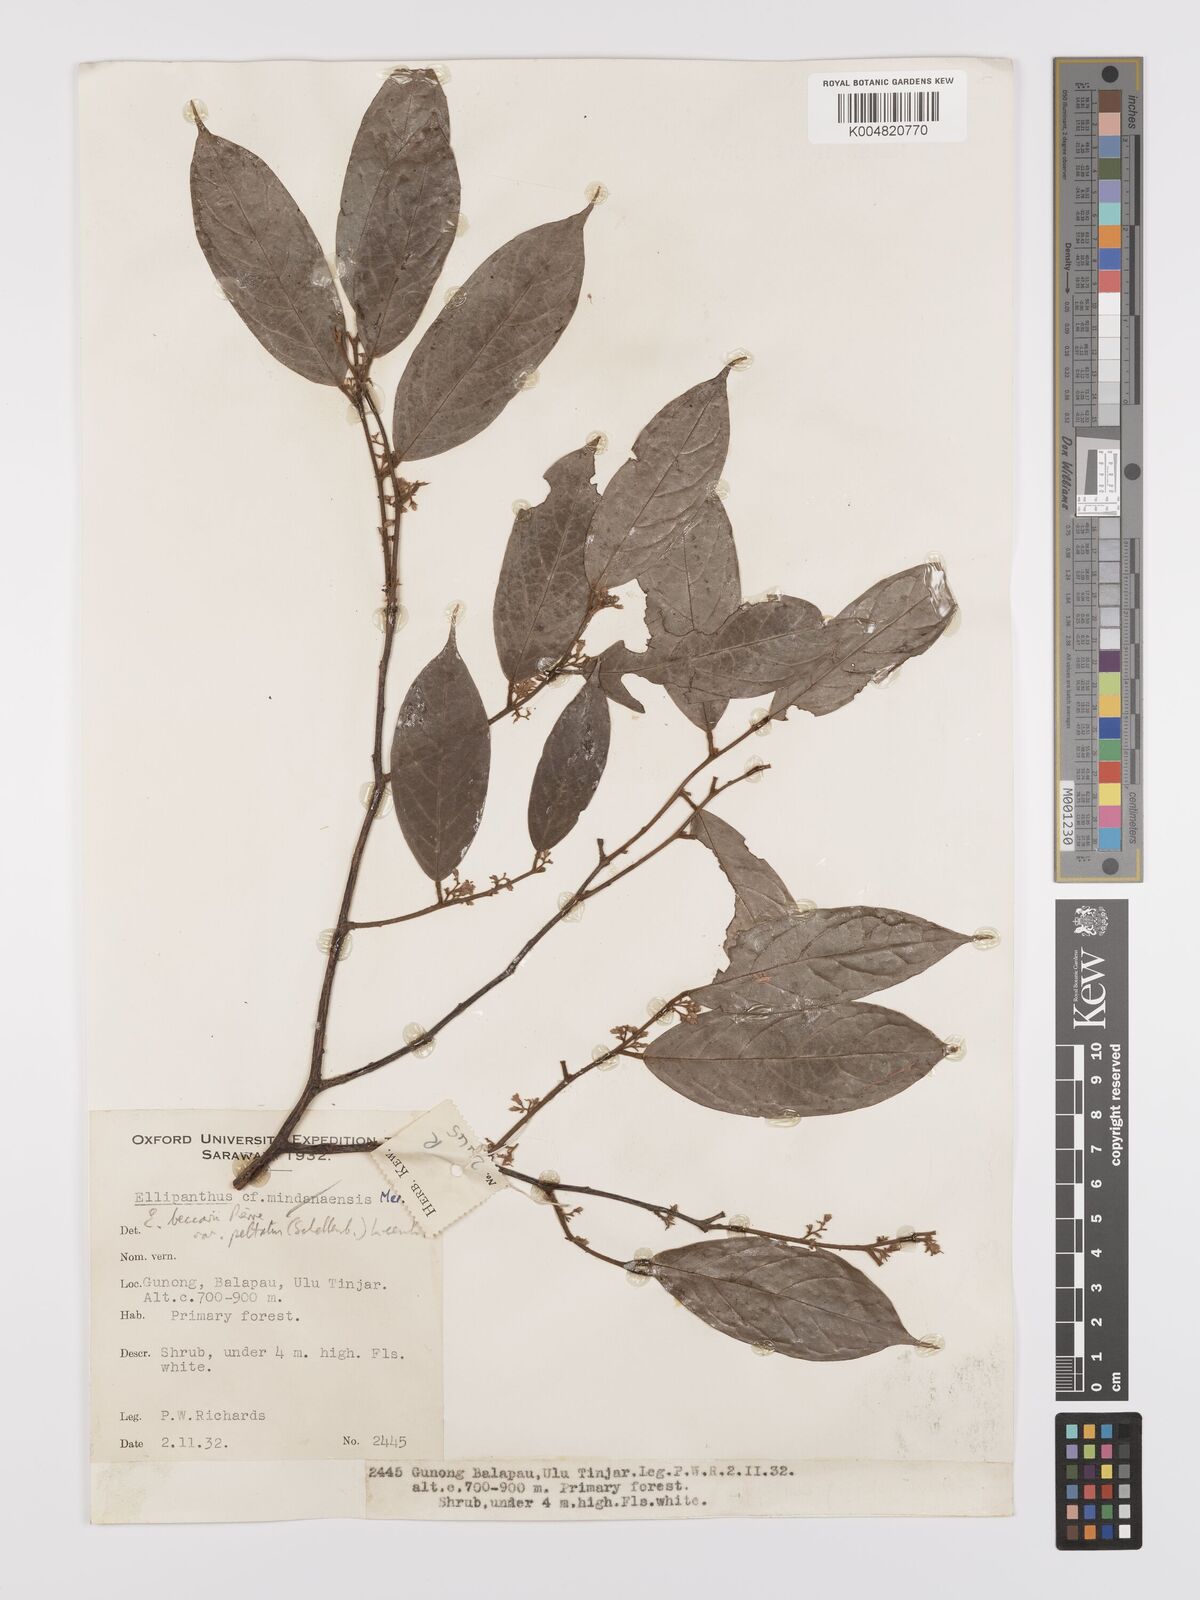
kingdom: Plantae
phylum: Tracheophyta
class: Magnoliopsida
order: Oxalidales
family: Connaraceae
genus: Ellipanthus
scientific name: Ellipanthus beccarii
